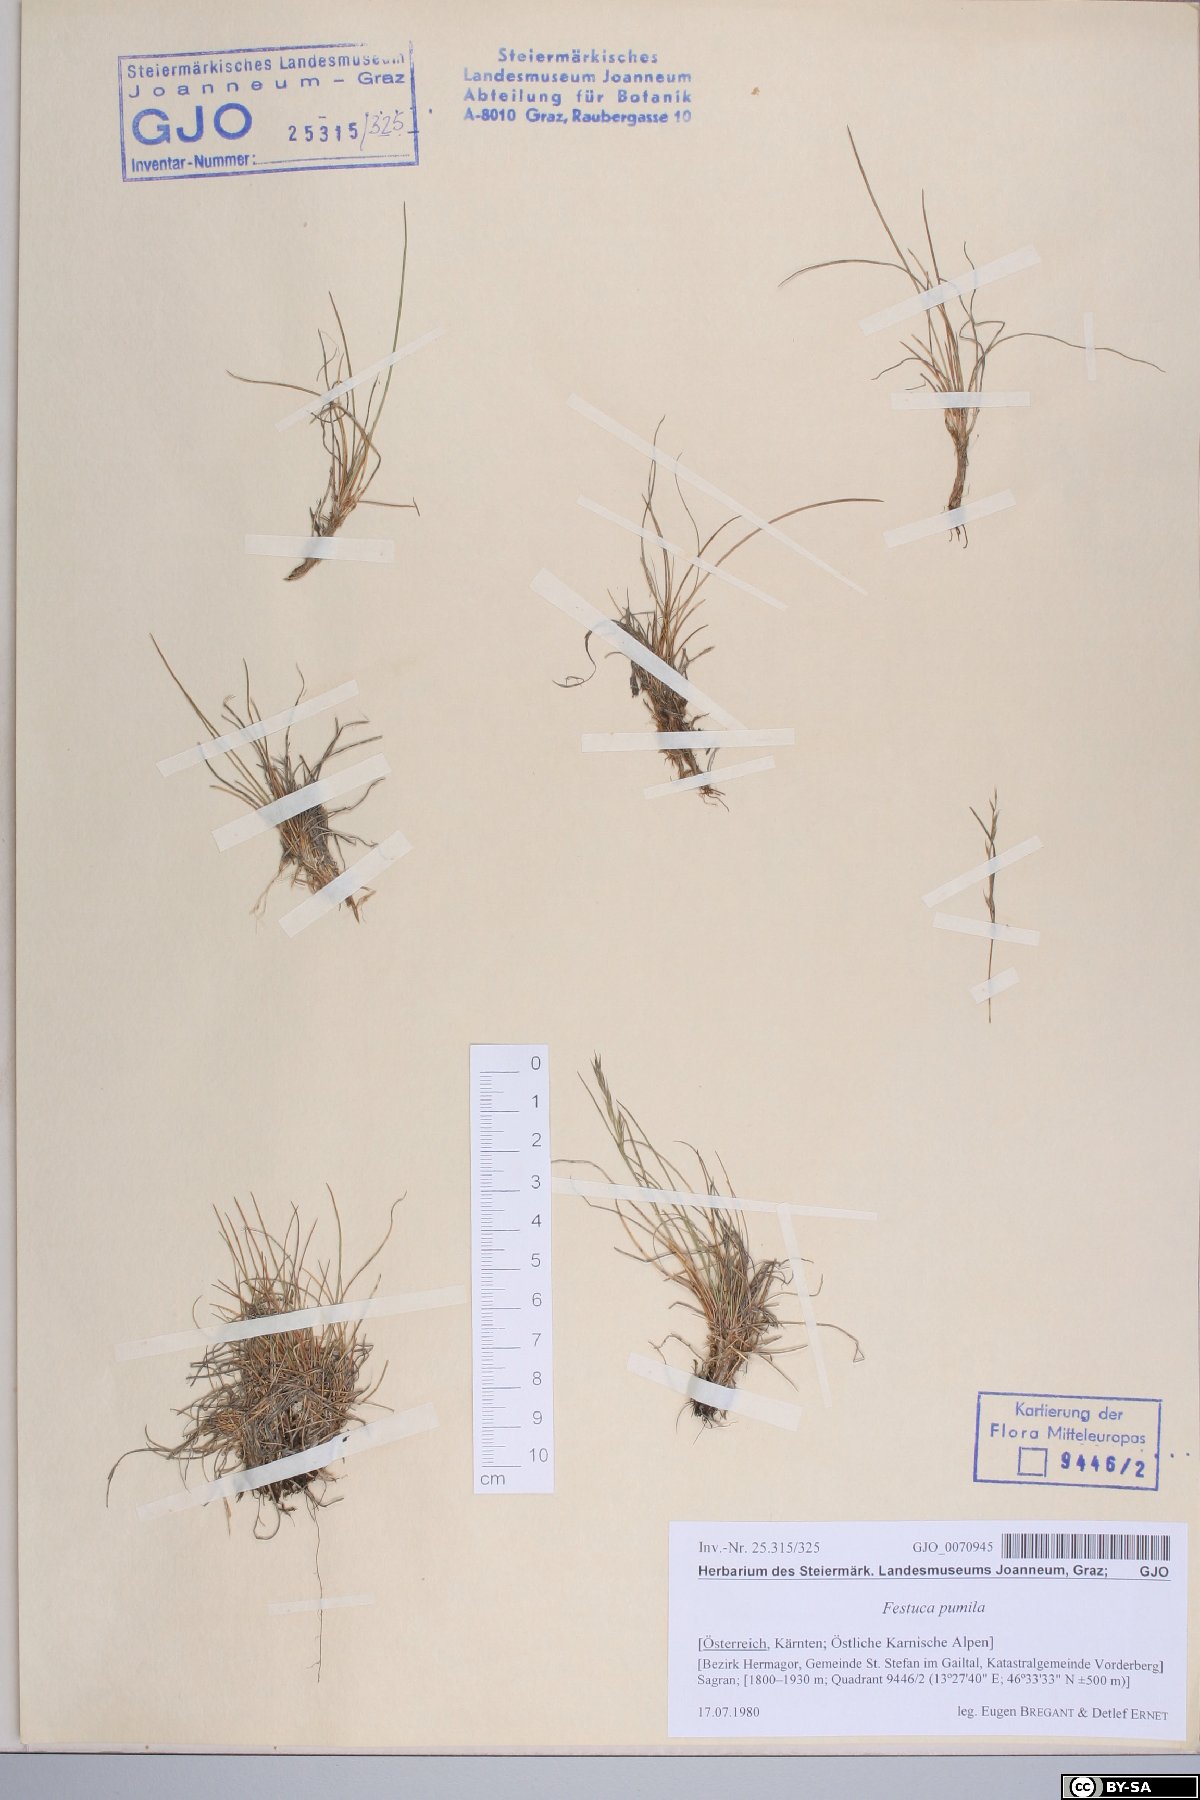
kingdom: Plantae
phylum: Tracheophyta
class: Liliopsida
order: Poales
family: Poaceae
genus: Festuca
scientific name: Festuca quadriflora
